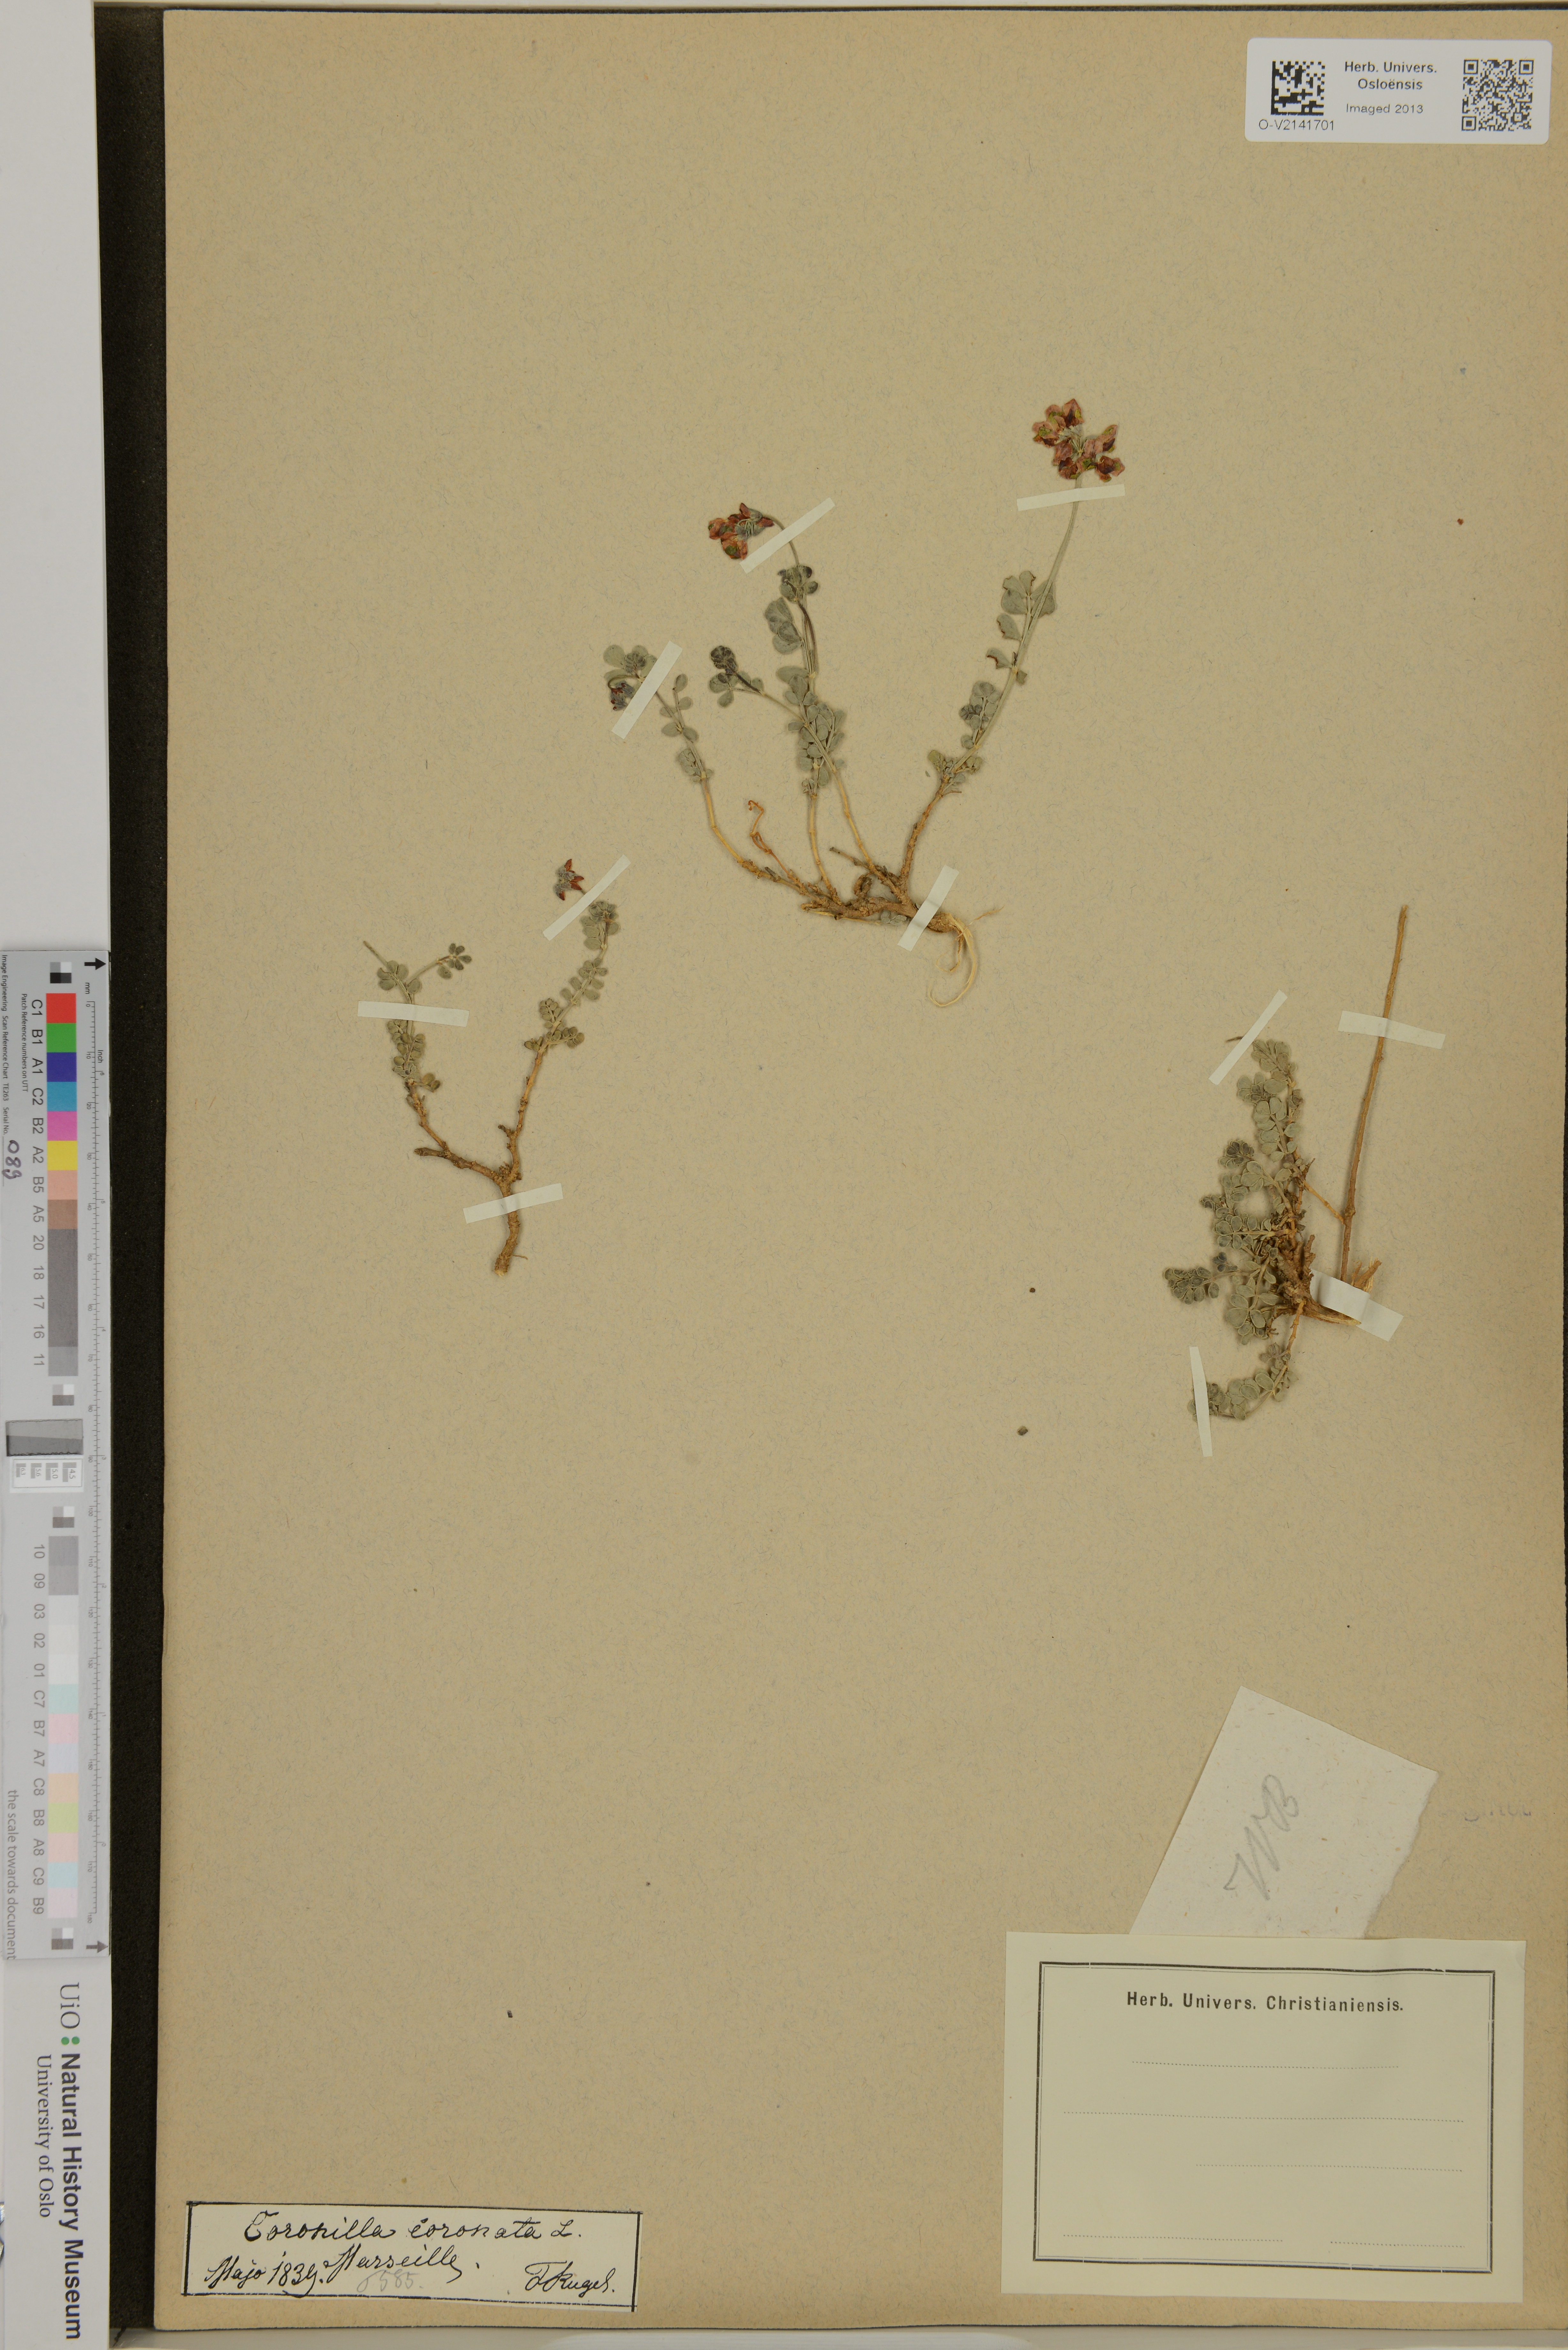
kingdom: Plantae
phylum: Tracheophyta
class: Magnoliopsida
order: Fabales
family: Fabaceae
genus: Coronilla
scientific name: Coronilla coronata
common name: Scorpion-vetch
